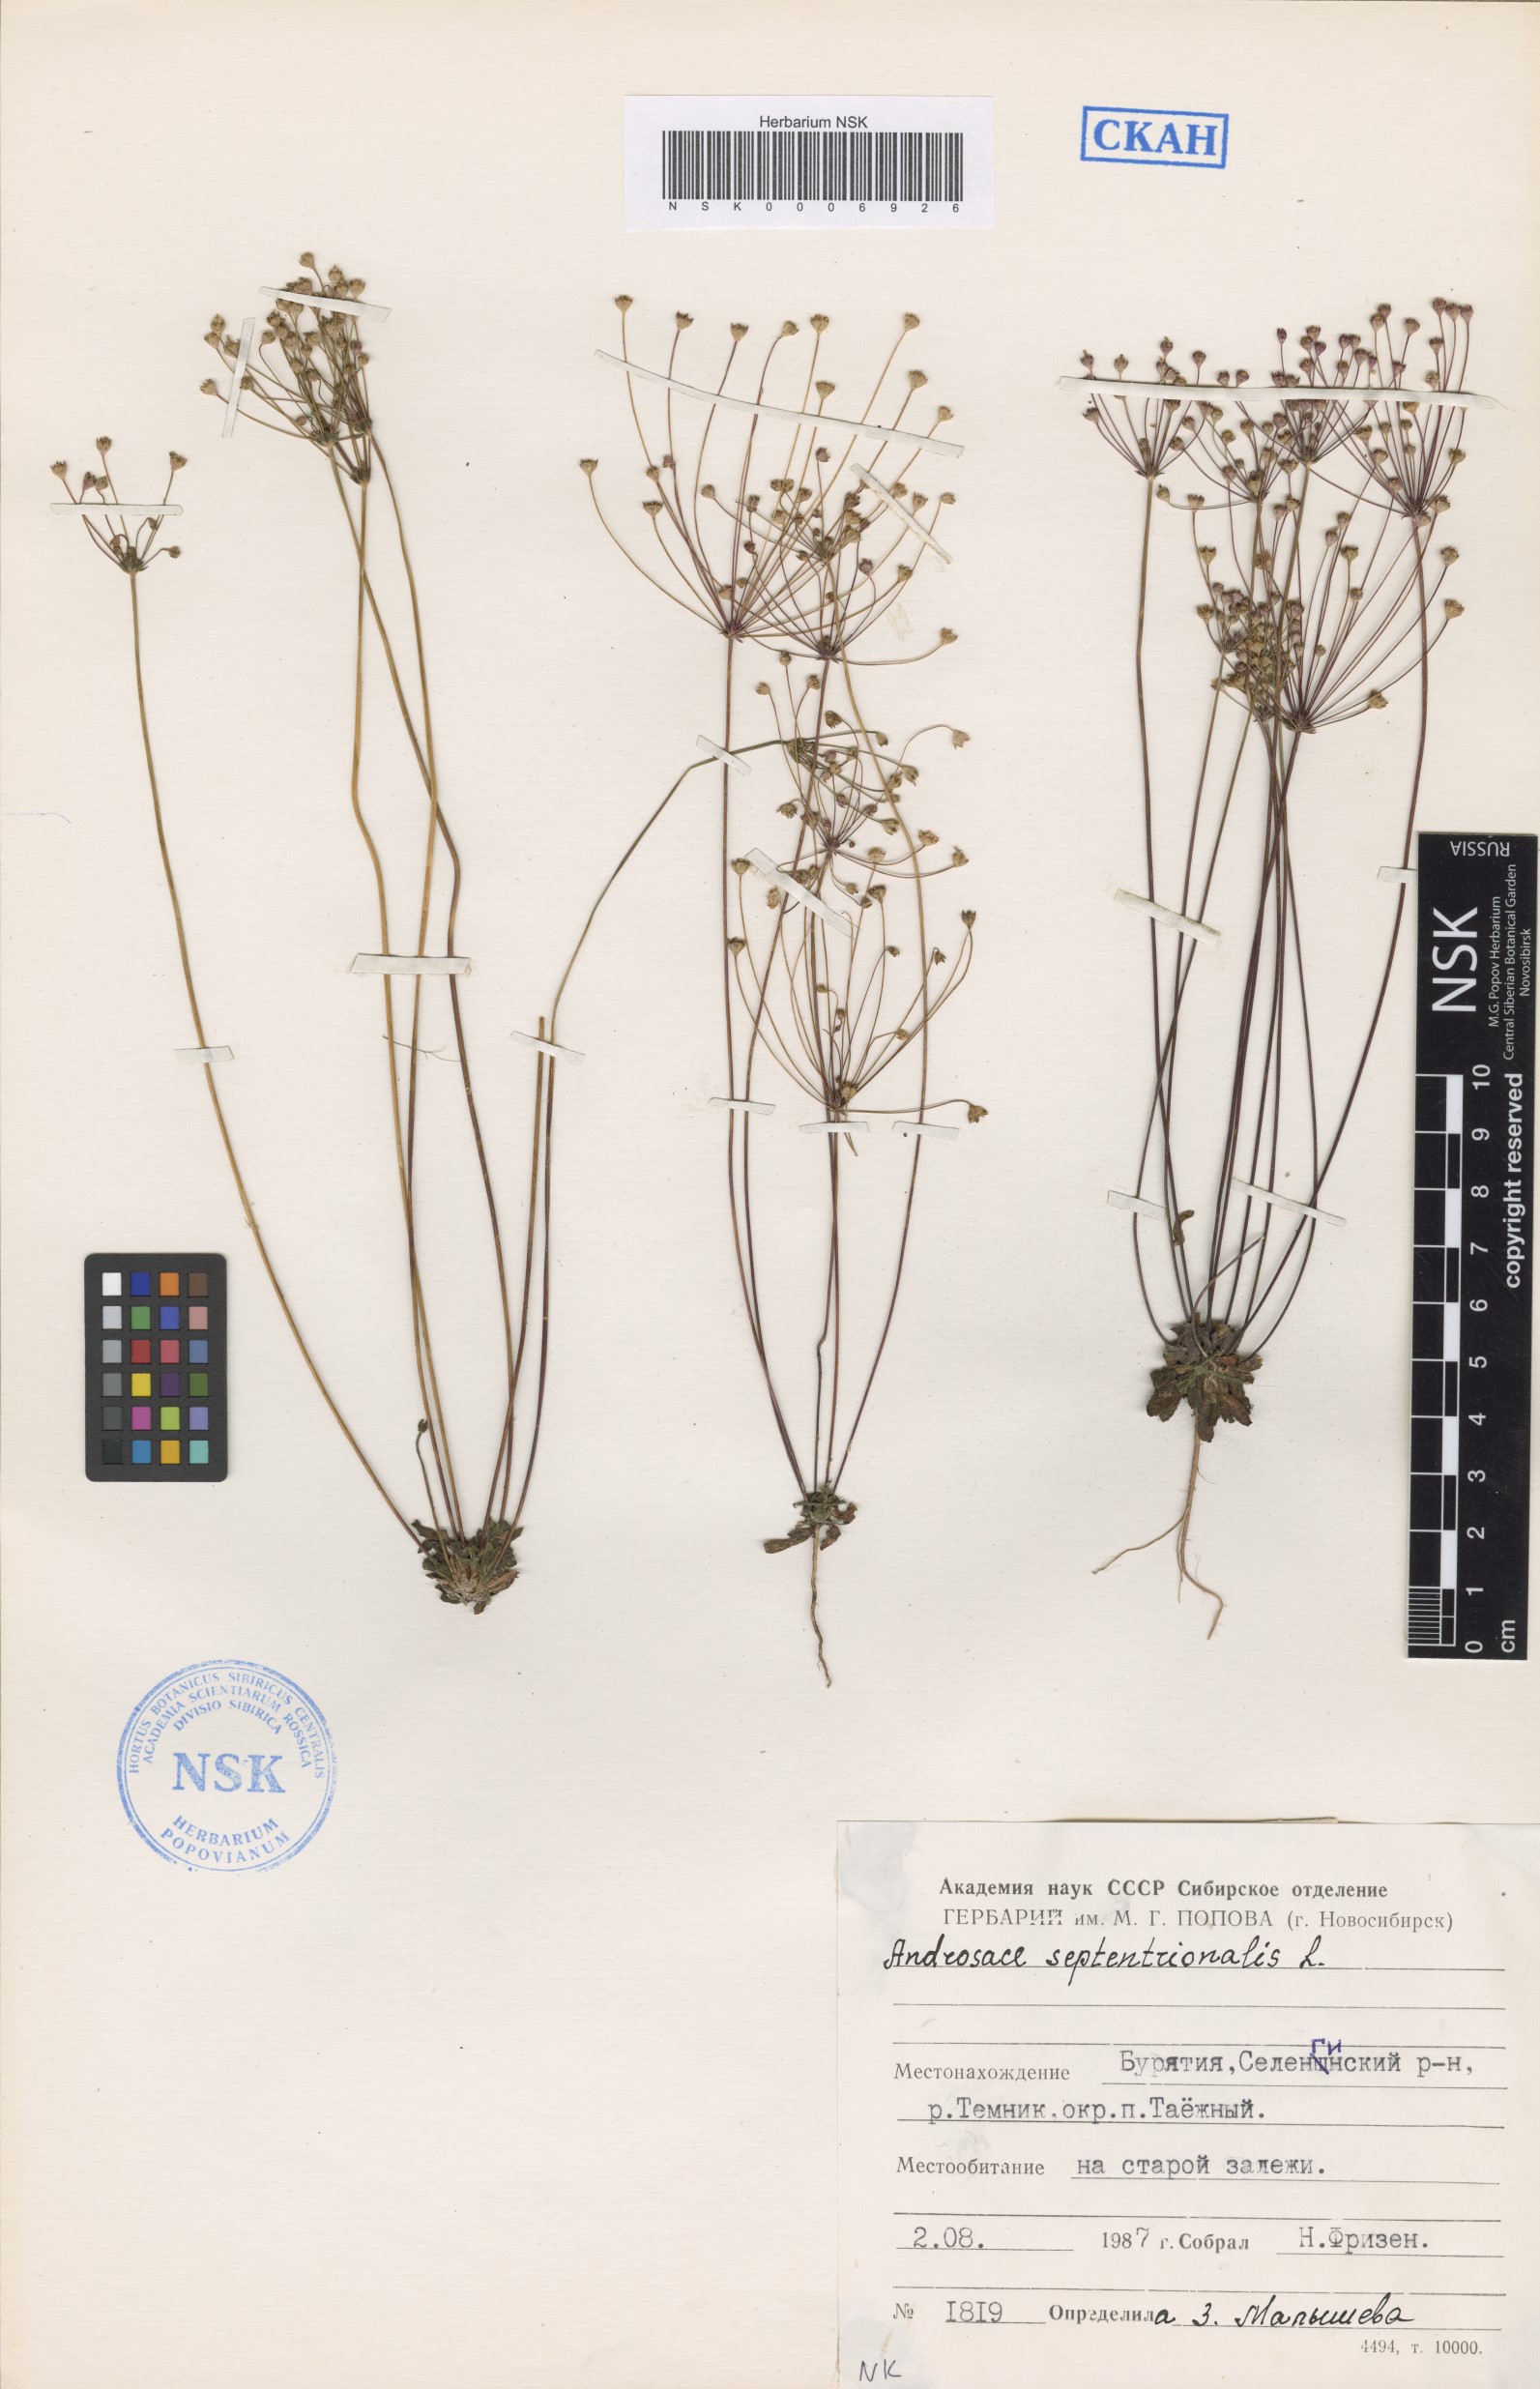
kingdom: Plantae
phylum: Tracheophyta
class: Magnoliopsida
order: Ericales
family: Primulaceae
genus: Androsace
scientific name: Androsace septentrionalis
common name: Hairy northern fairy-candelabra
